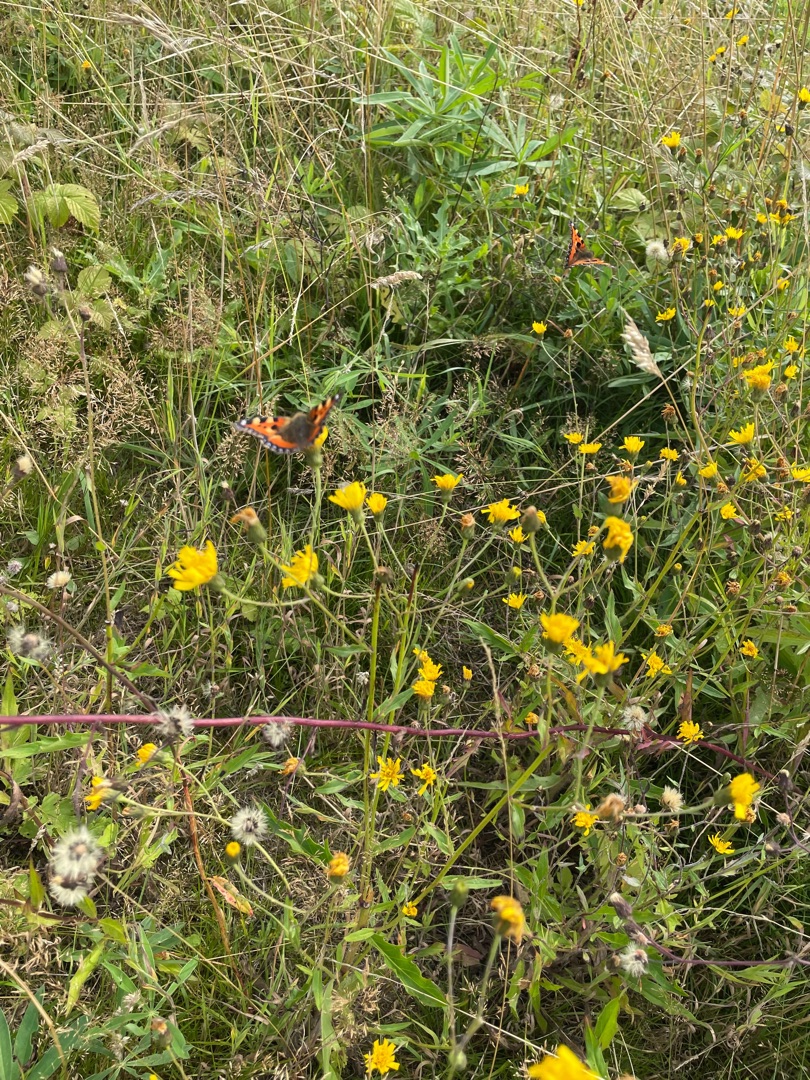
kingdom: Animalia
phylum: Arthropoda
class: Insecta
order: Lepidoptera
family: Nymphalidae
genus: Aglais
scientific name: Aglais urticae
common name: Nældens takvinge
